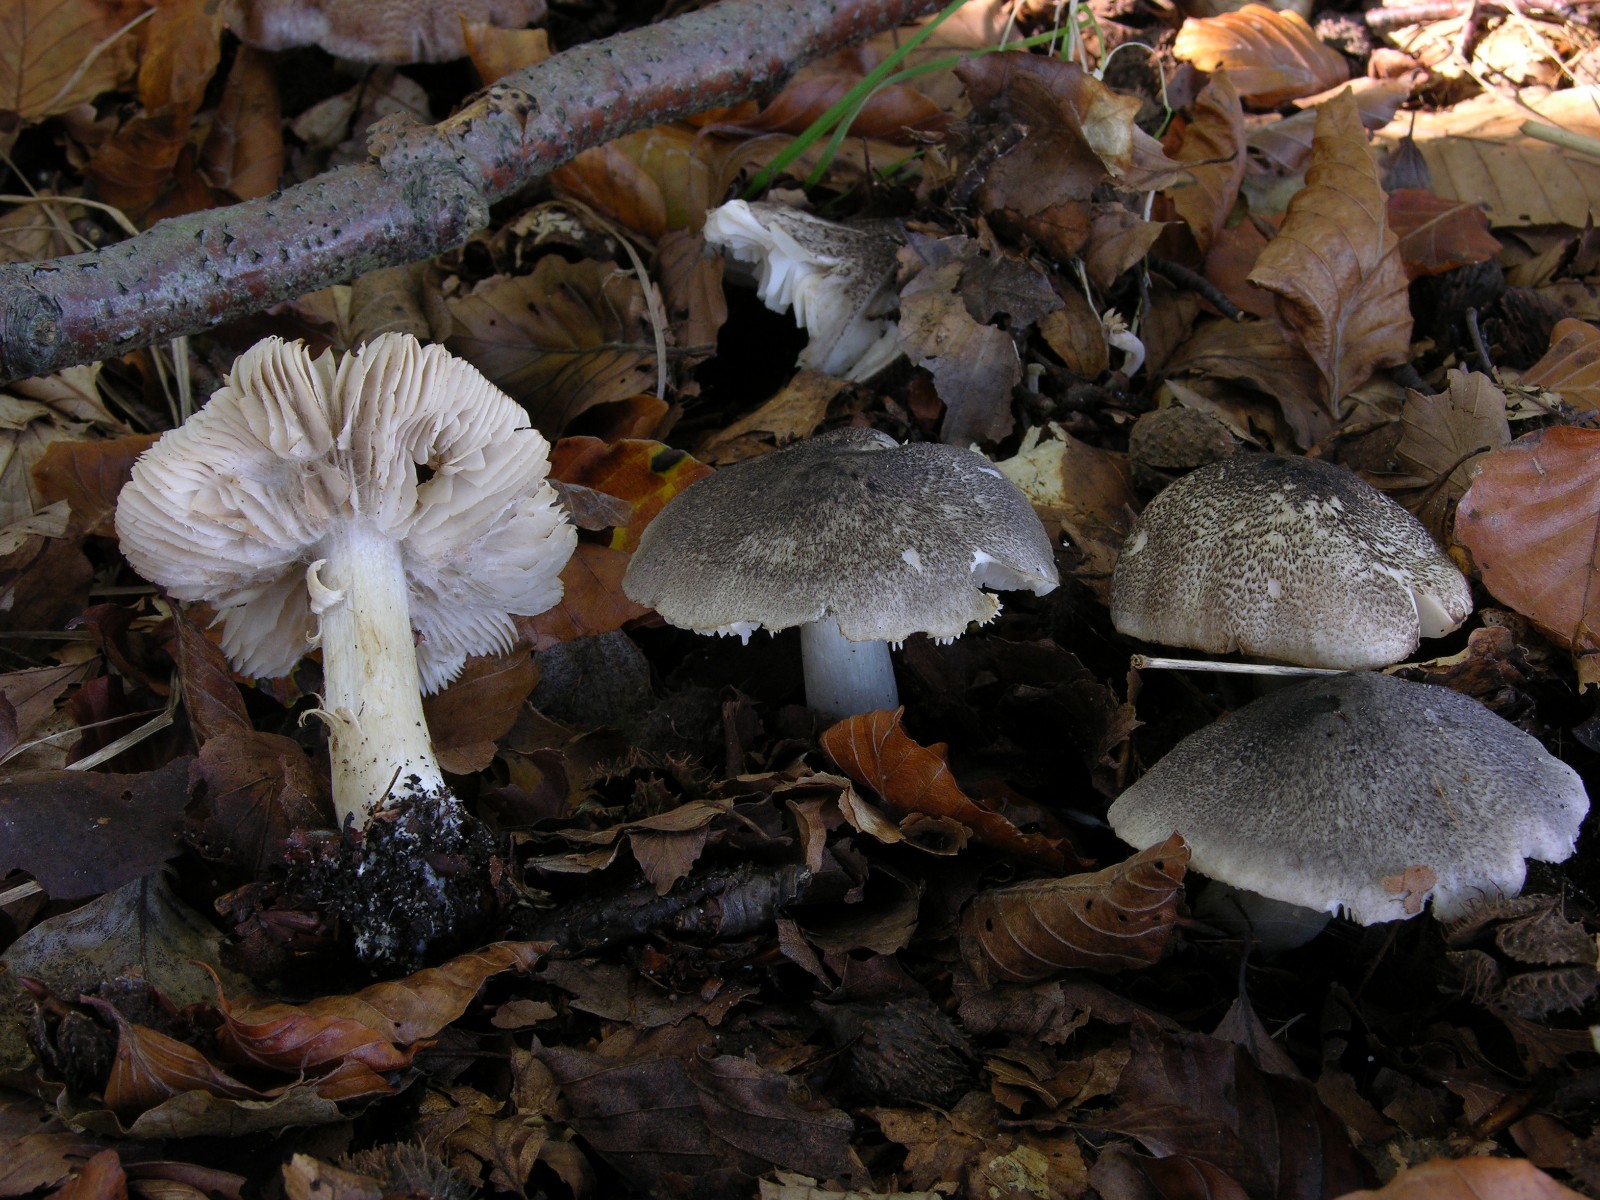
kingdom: Fungi
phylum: Basidiomycota
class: Agaricomycetes
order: Agaricales
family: Tricholomataceae
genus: Tricholoma
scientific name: Tricholoma orirubens
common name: rødbladet ridderhat
